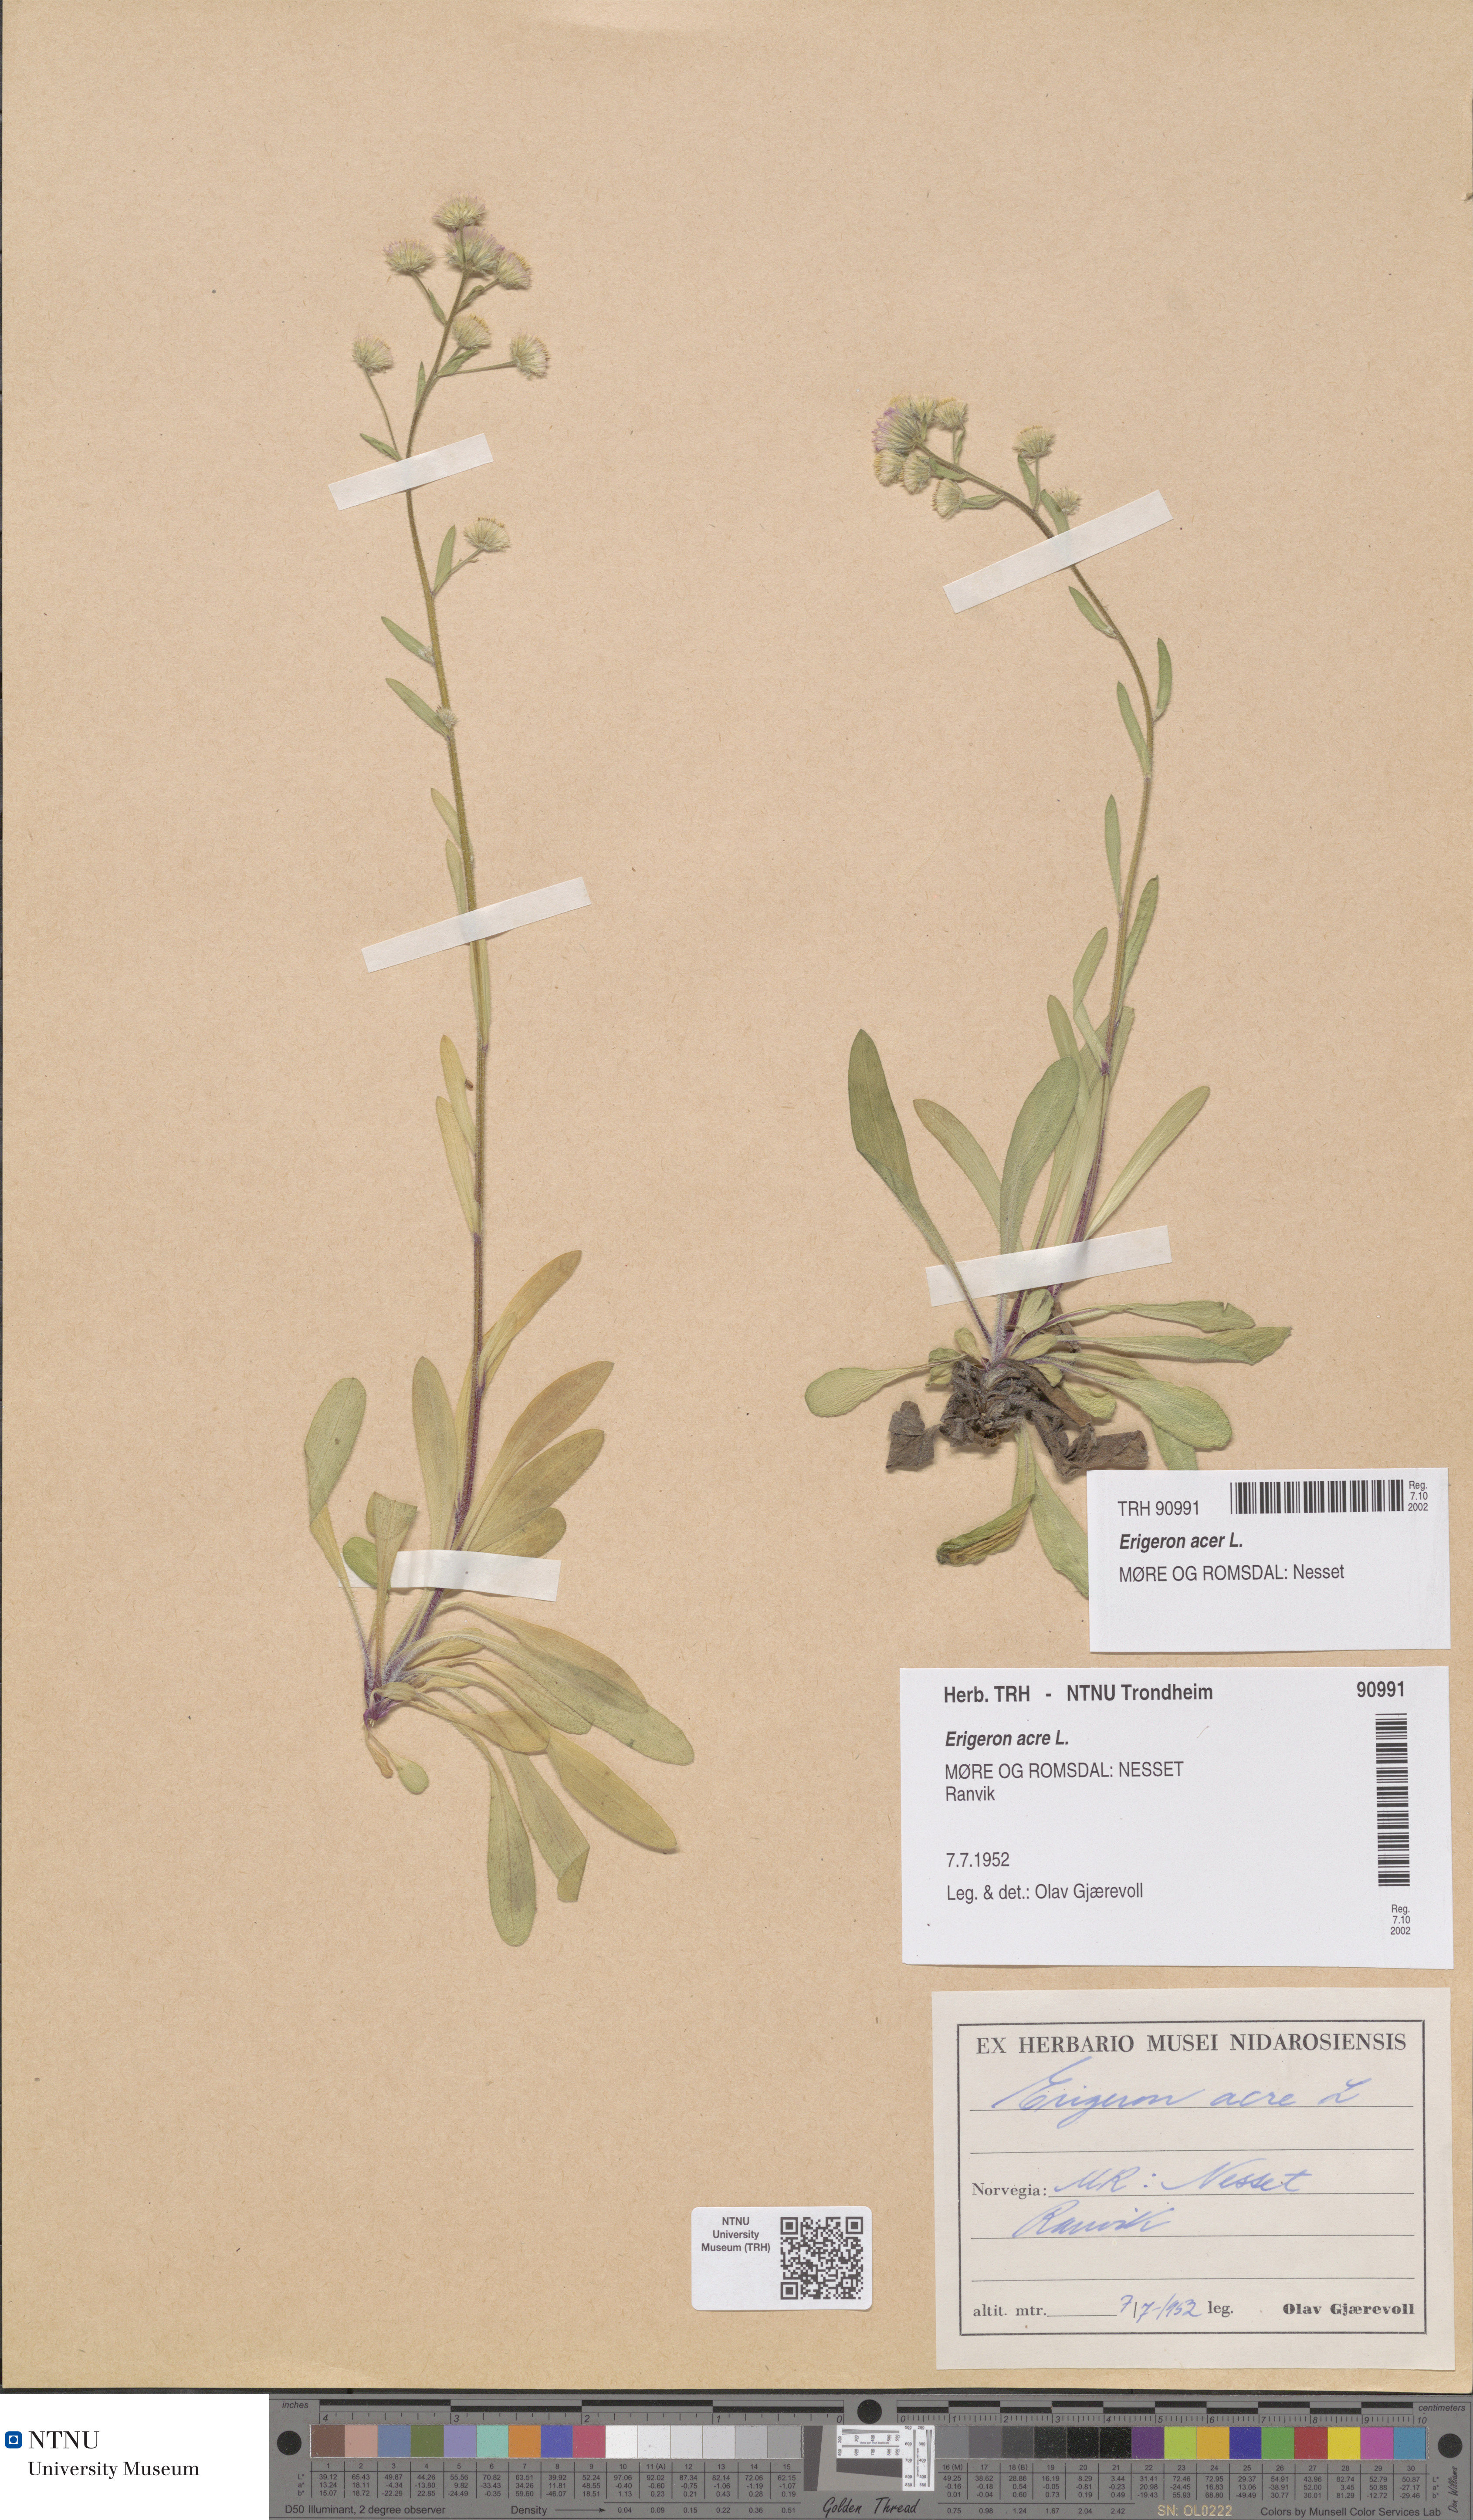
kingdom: Plantae
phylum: Tracheophyta
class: Magnoliopsida
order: Asterales
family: Asteraceae
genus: Erigeron
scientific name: Erigeron acris
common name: Blue fleabane
